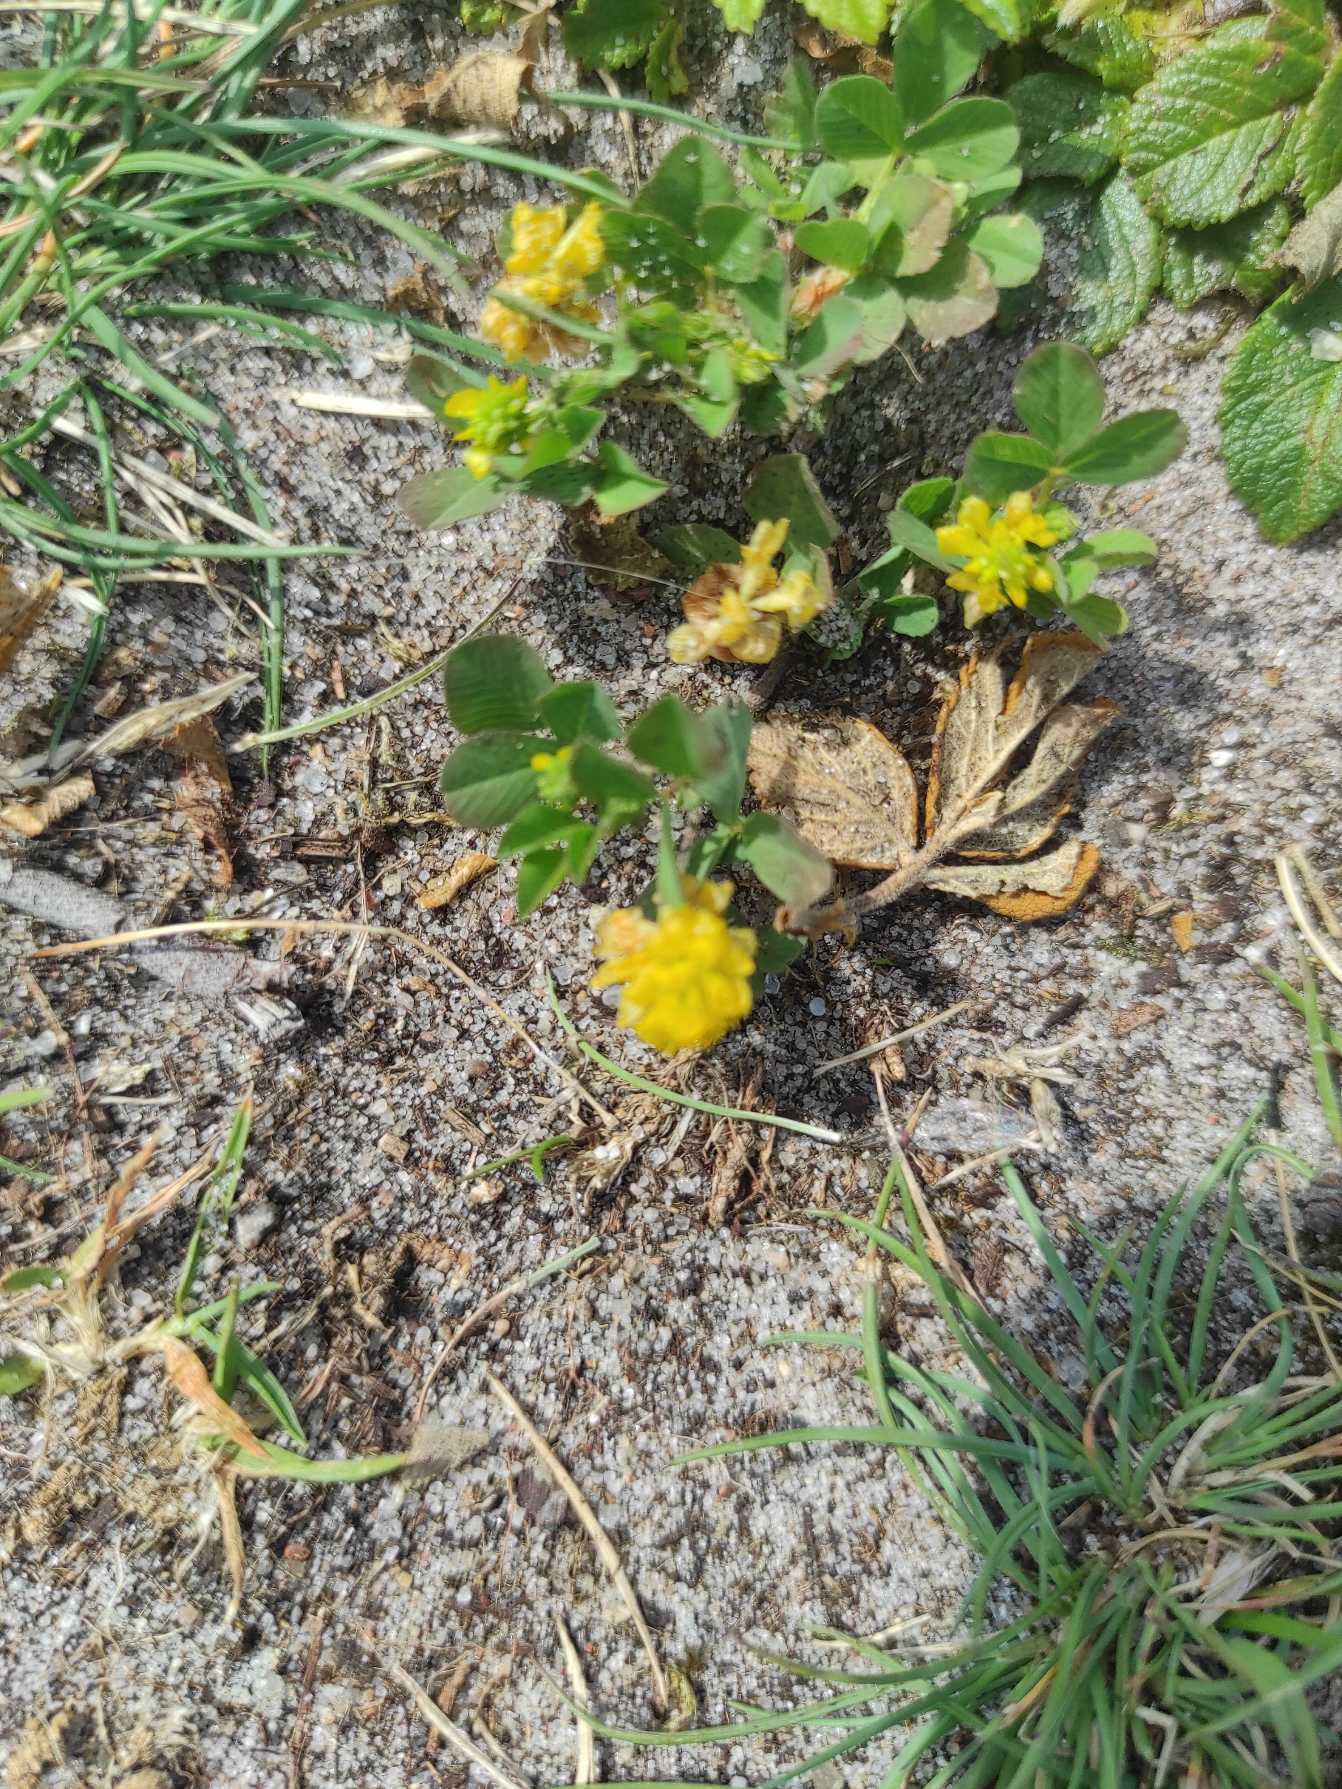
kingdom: Plantae
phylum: Tracheophyta
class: Magnoliopsida
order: Fabales
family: Fabaceae
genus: Trifolium
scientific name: Trifolium campestre
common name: Gul kløver
